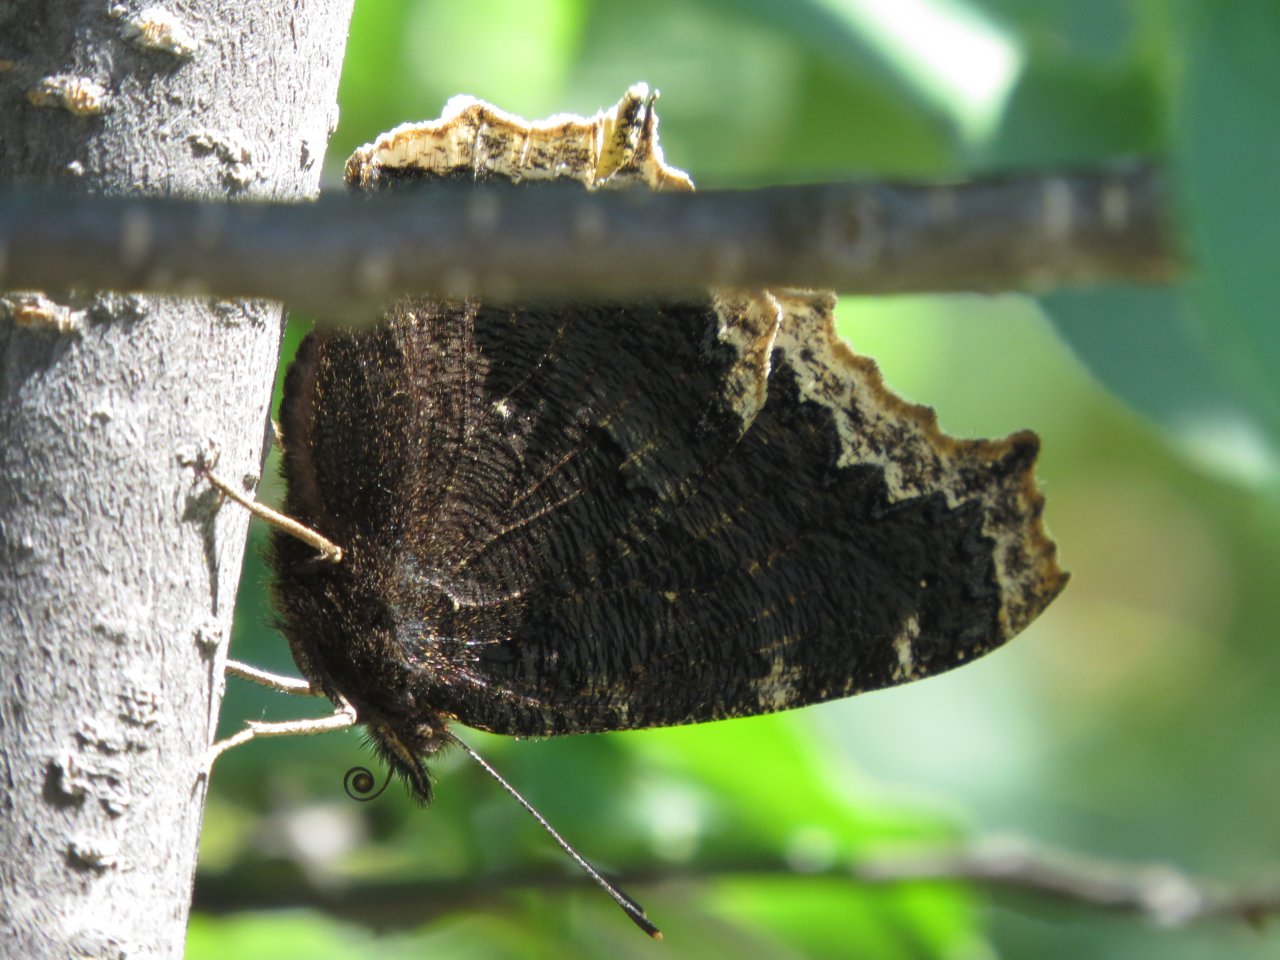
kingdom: Animalia
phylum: Arthropoda
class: Insecta
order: Lepidoptera
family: Nymphalidae
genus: Nymphalis
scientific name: Nymphalis antiopa
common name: Mourning Cloak
